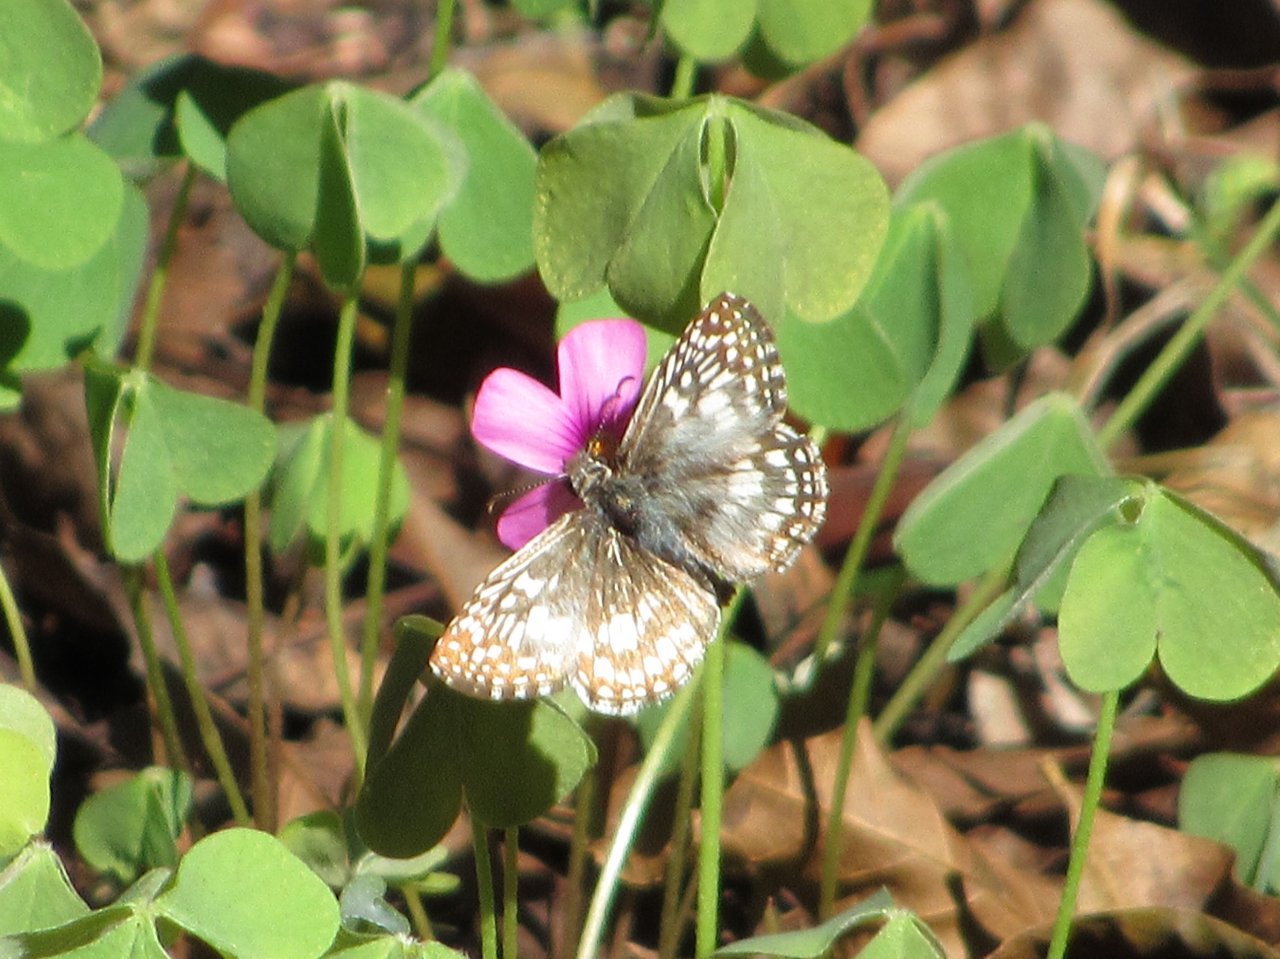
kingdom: Animalia
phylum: Arthropoda
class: Insecta
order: Lepidoptera
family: Hesperiidae
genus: Pyrgus
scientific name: Pyrgus oileus
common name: Tropical Checkered-Skipper
